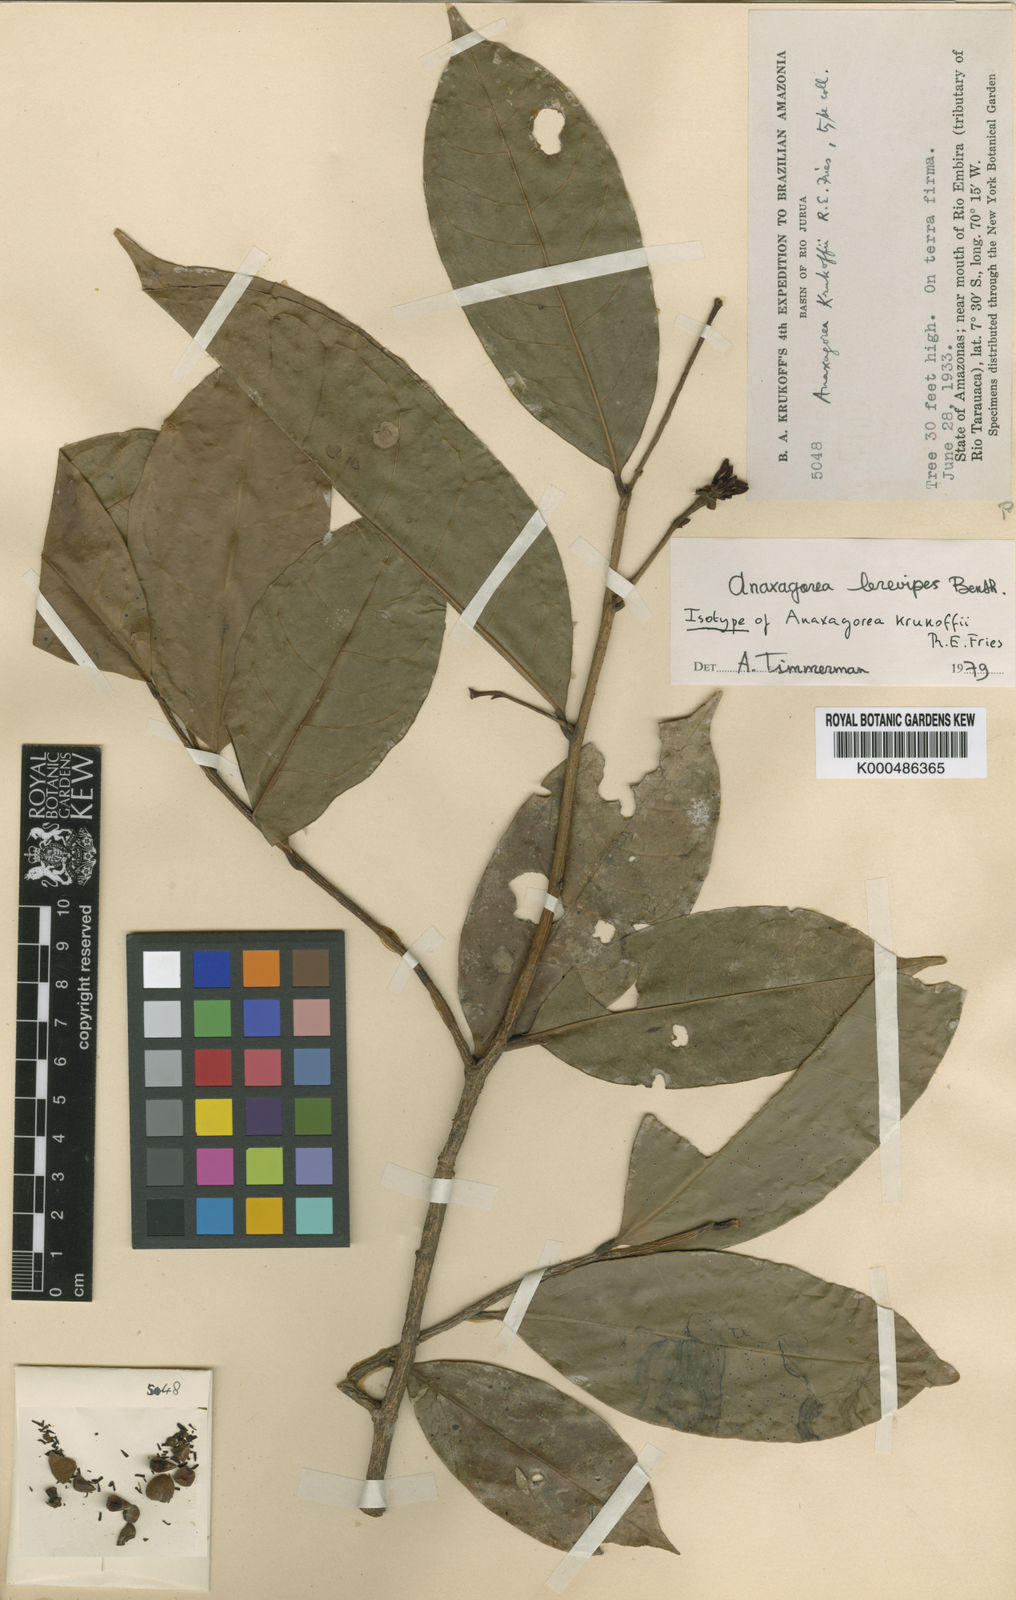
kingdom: Plantae
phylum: Tracheophyta
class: Magnoliopsida
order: Magnoliales
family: Annonaceae
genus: Anaxagorea
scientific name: Anaxagorea brevipes
